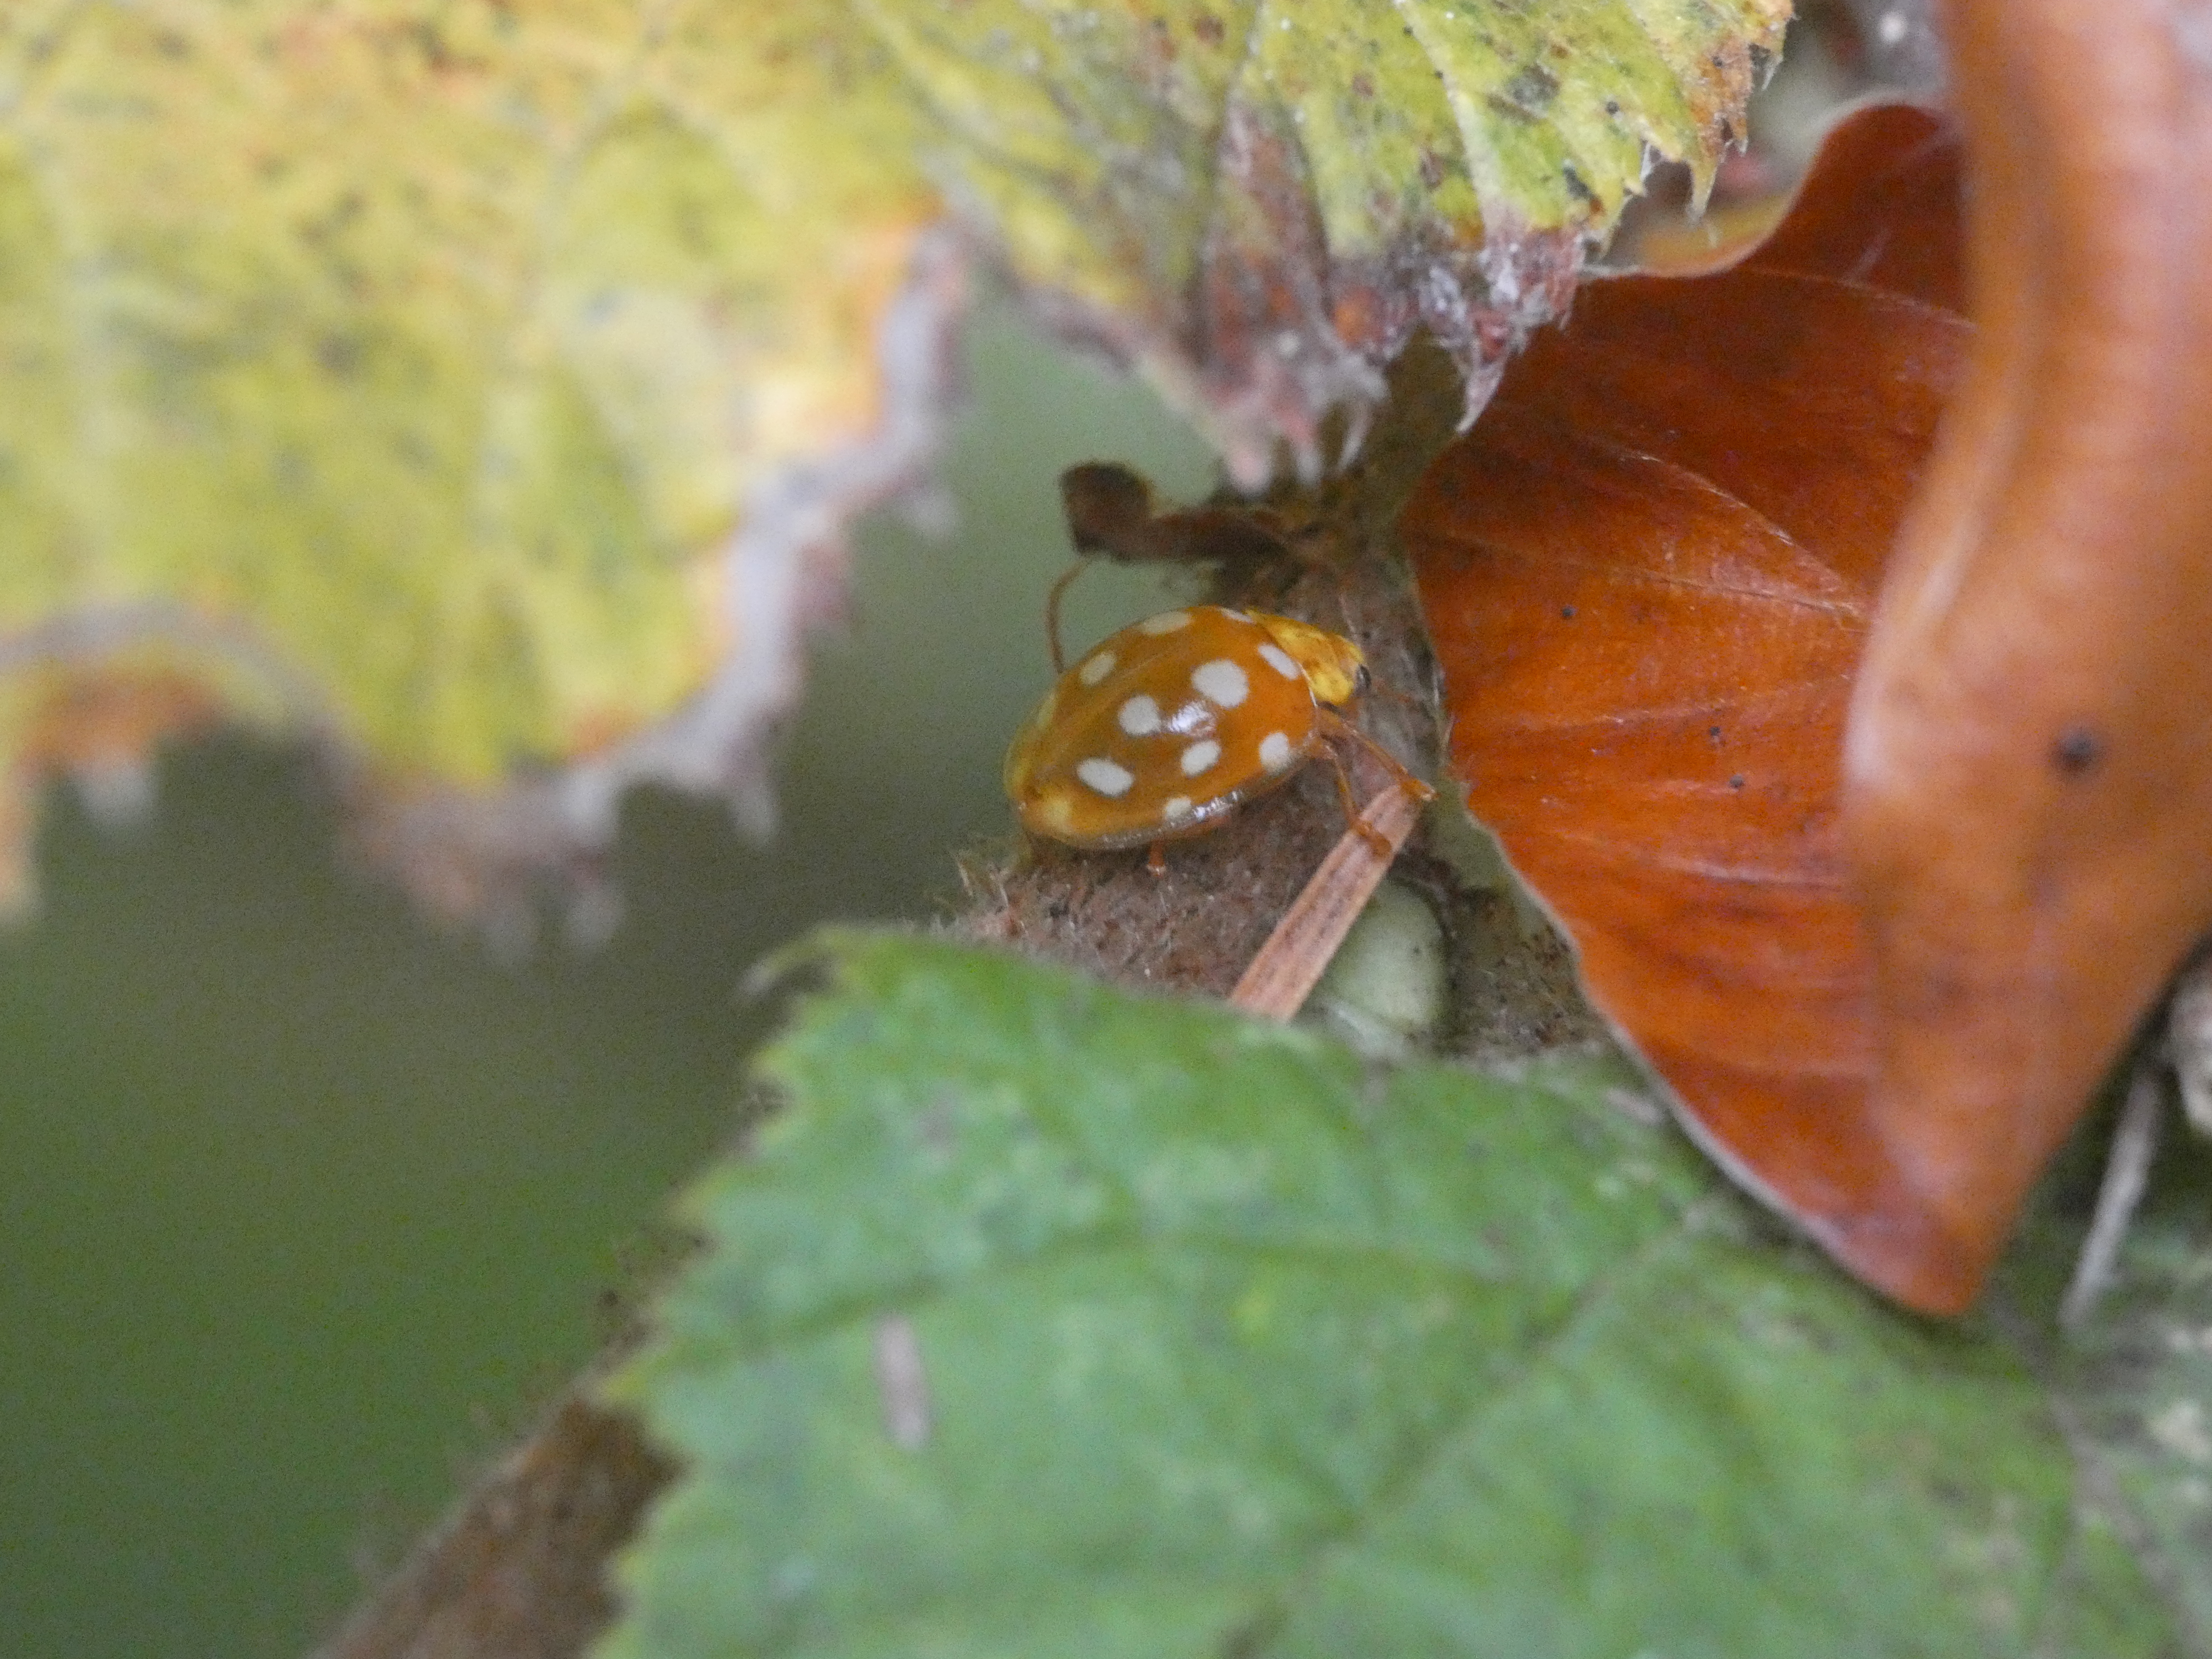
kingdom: Animalia
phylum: Arthropoda
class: Insecta
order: Coleoptera
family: Coccinellidae
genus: Halyzia
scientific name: Halyzia sedecimguttata
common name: Sekstenplettet mariehøne
